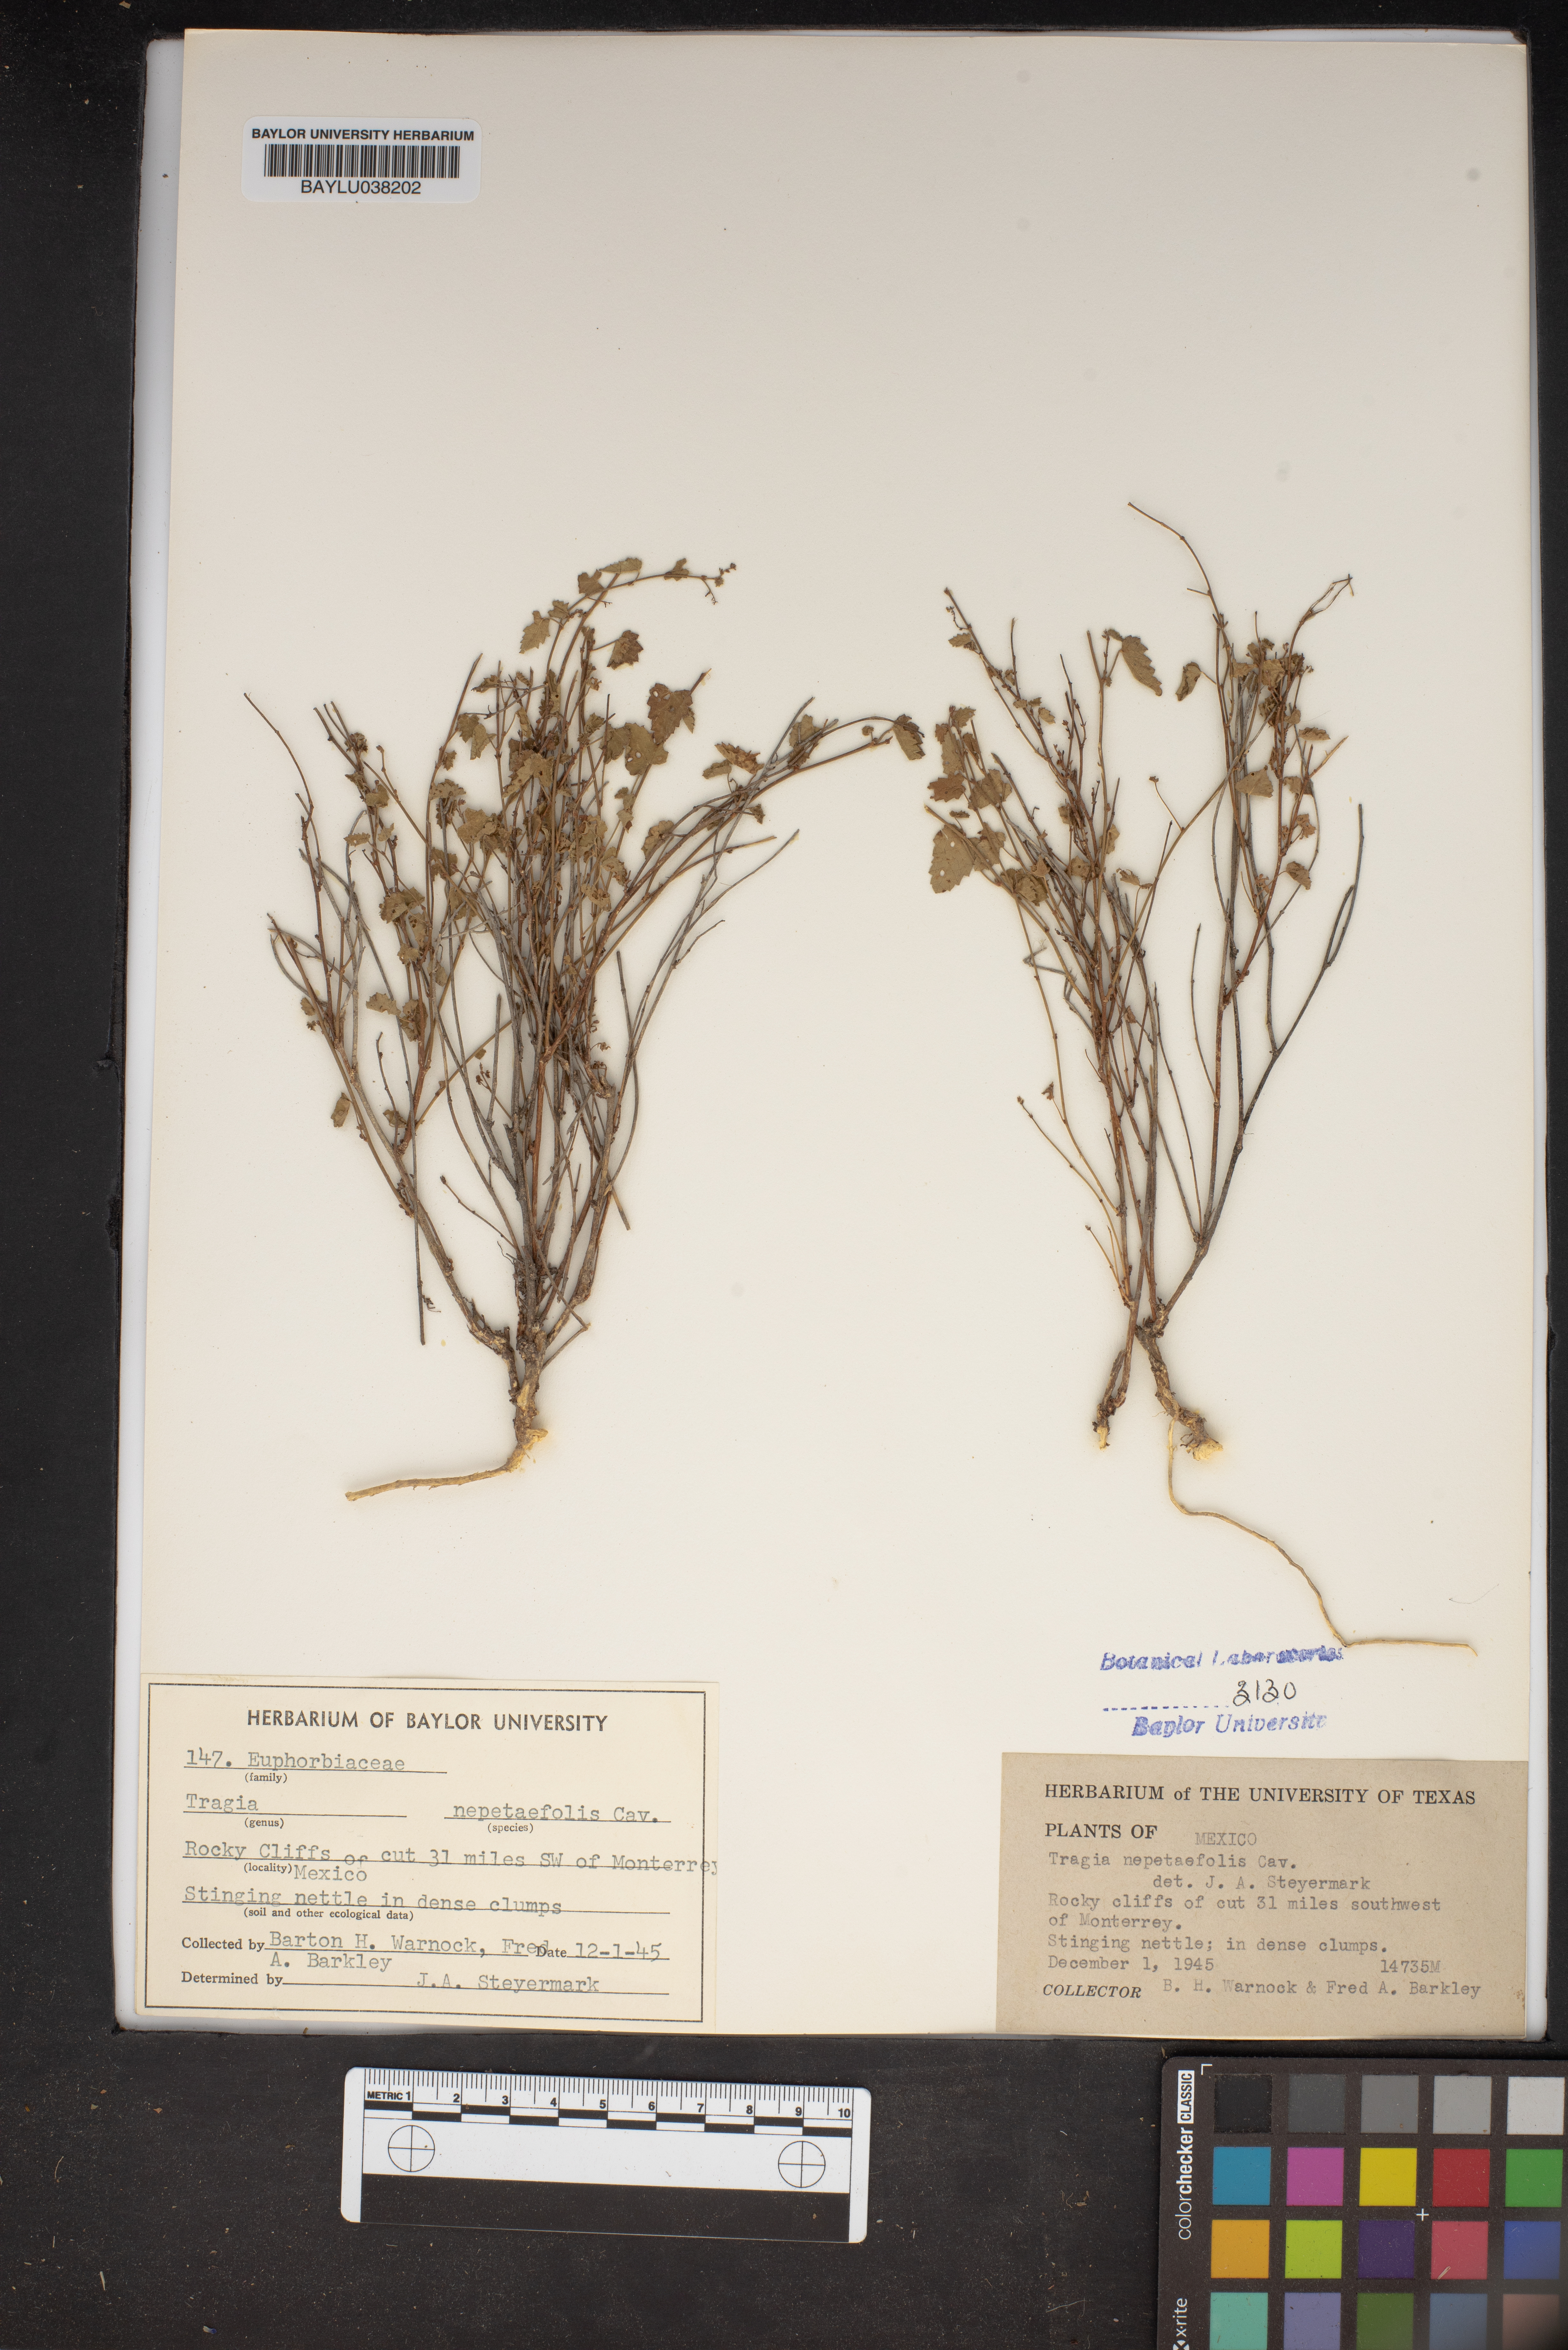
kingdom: Plantae
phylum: Tracheophyta
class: Magnoliopsida
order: Malpighiales
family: Euphorbiaceae
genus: Tragia
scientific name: Tragia nepetifolia
